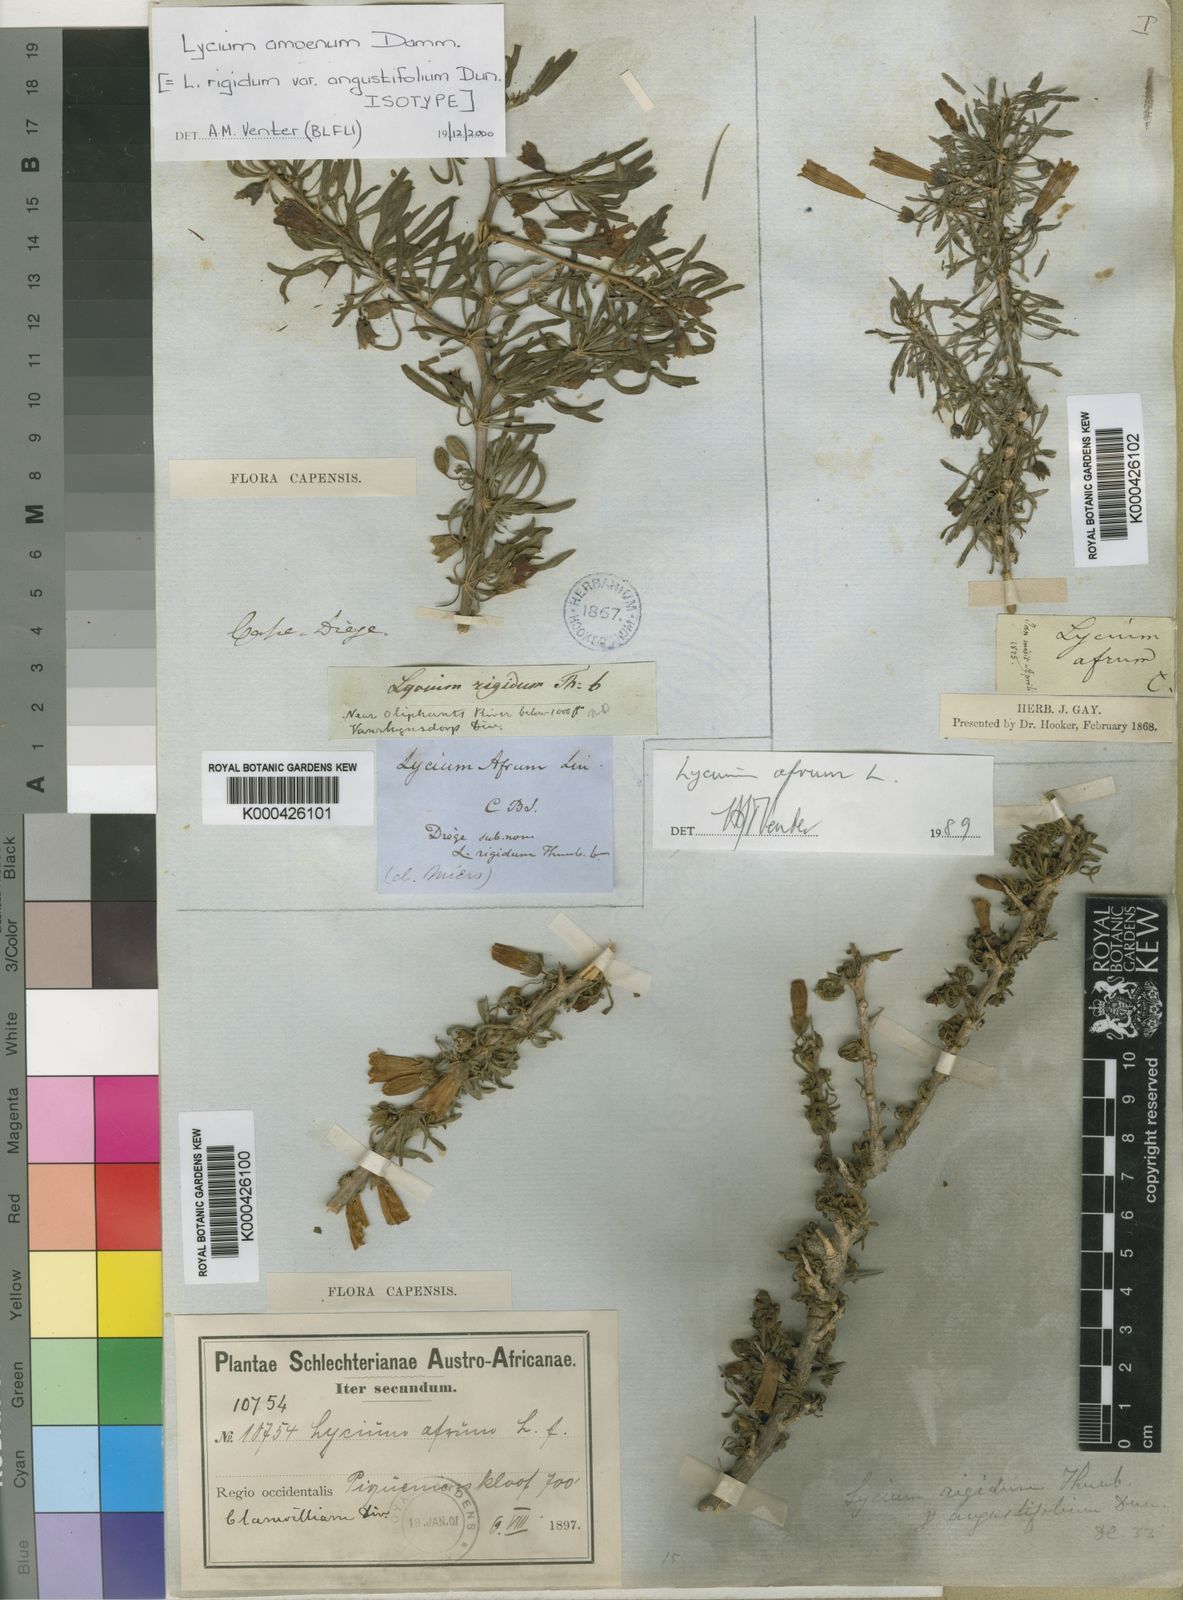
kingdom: Plantae
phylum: Tracheophyta
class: Magnoliopsida
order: Solanales
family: Solanaceae
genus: Lycium
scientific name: Lycium amoenum
